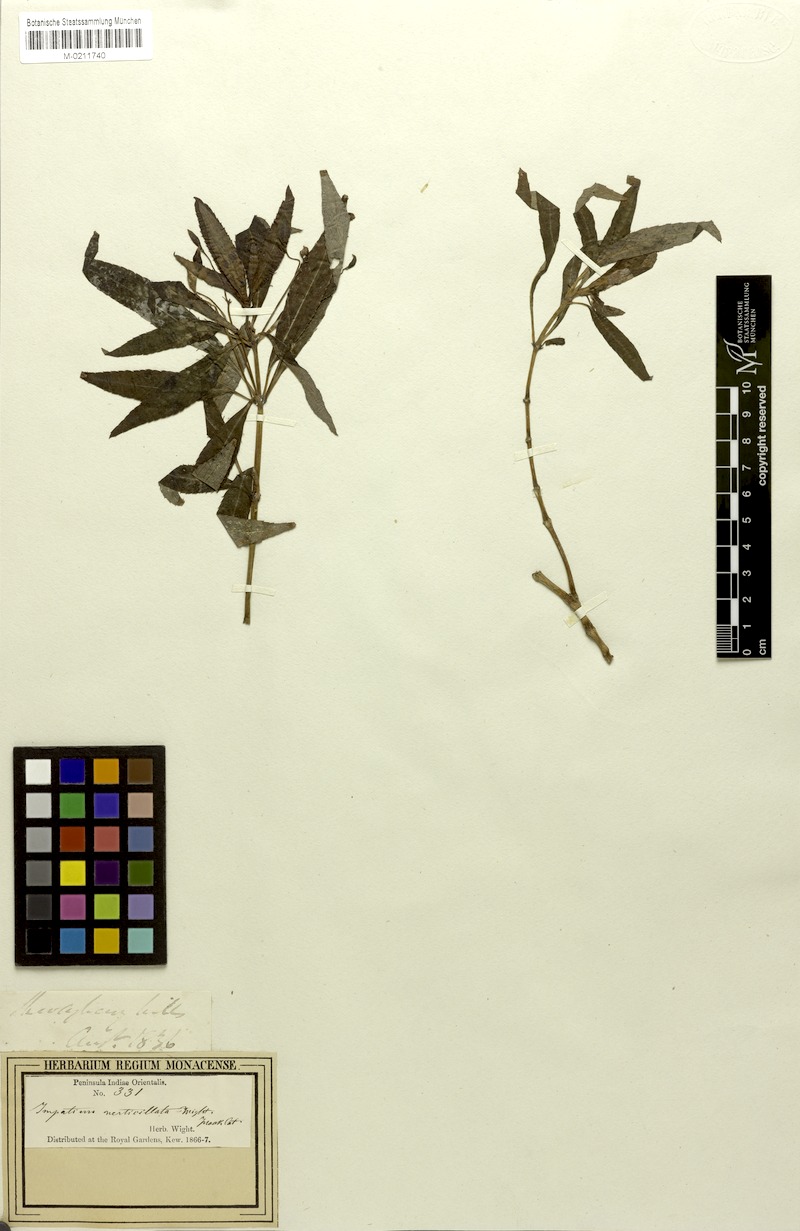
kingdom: Plantae
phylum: Tracheophyta
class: Magnoliopsida
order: Ericales
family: Balsaminaceae
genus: Impatiens
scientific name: Impatiens verticillata
